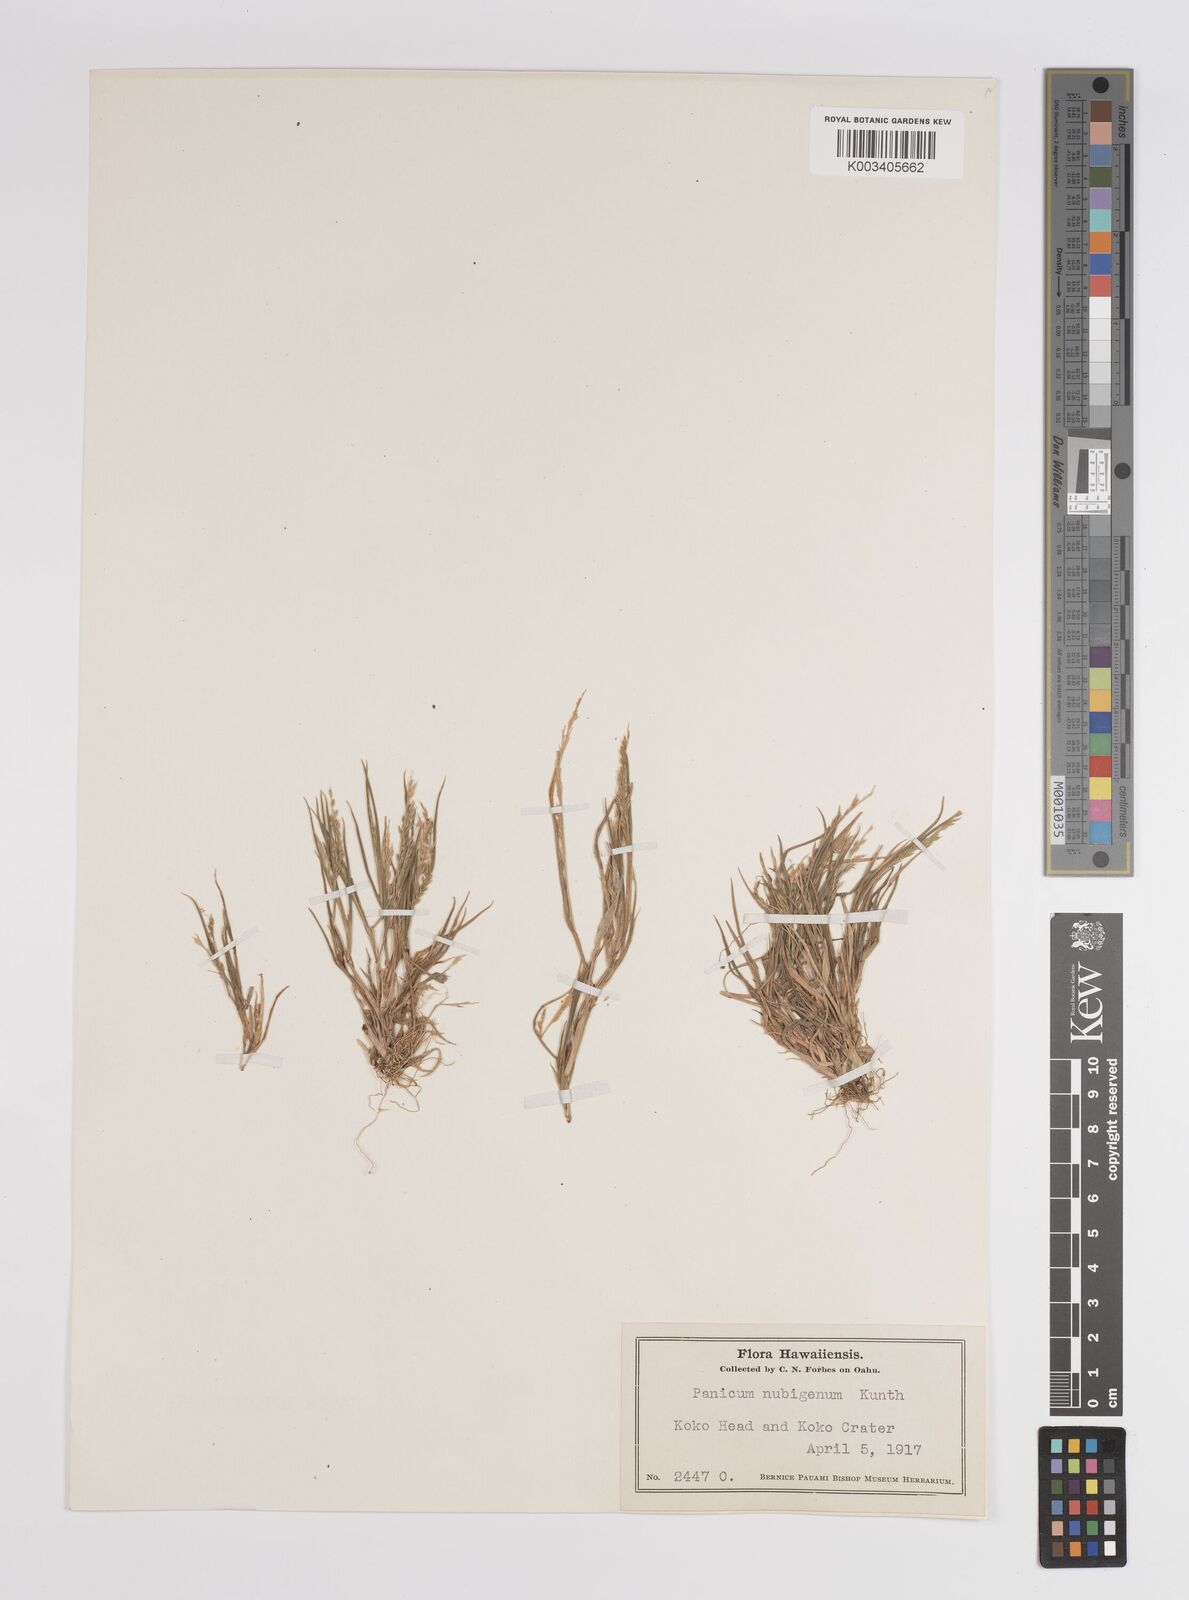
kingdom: Plantae
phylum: Tracheophyta
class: Liliopsida
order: Poales
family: Poaceae
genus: Panicum
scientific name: Panicum fauriei
